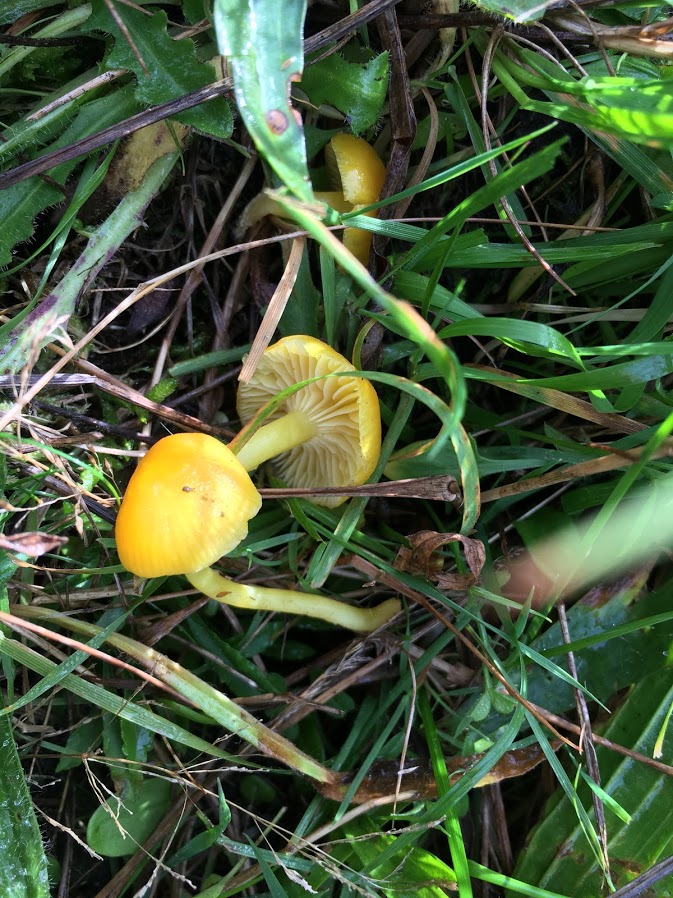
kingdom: Fungi
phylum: Basidiomycota
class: Agaricomycetes
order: Agaricales
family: Hygrophoraceae
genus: Hygrocybe
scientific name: Hygrocybe ceracea
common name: voksgul vokshat
